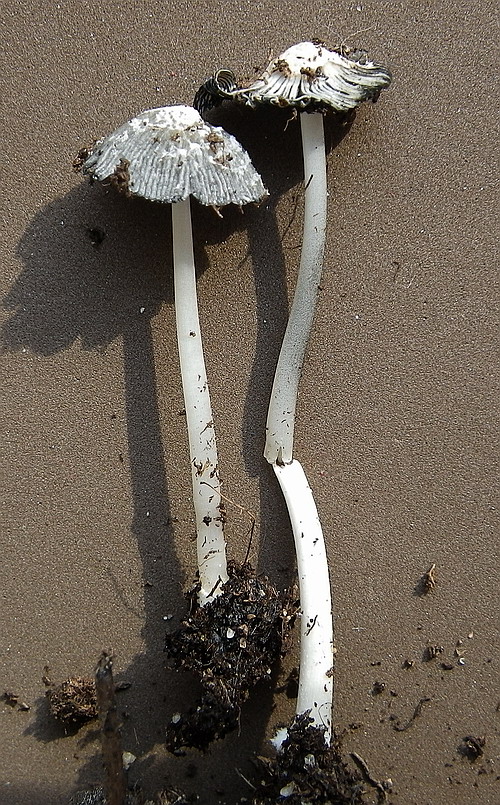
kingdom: Fungi
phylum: Basidiomycota
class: Agaricomycetes
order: Agaricales
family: Psathyrellaceae
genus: Coprinellus
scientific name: Coprinellus flocculosus
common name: fnugget blækhat
